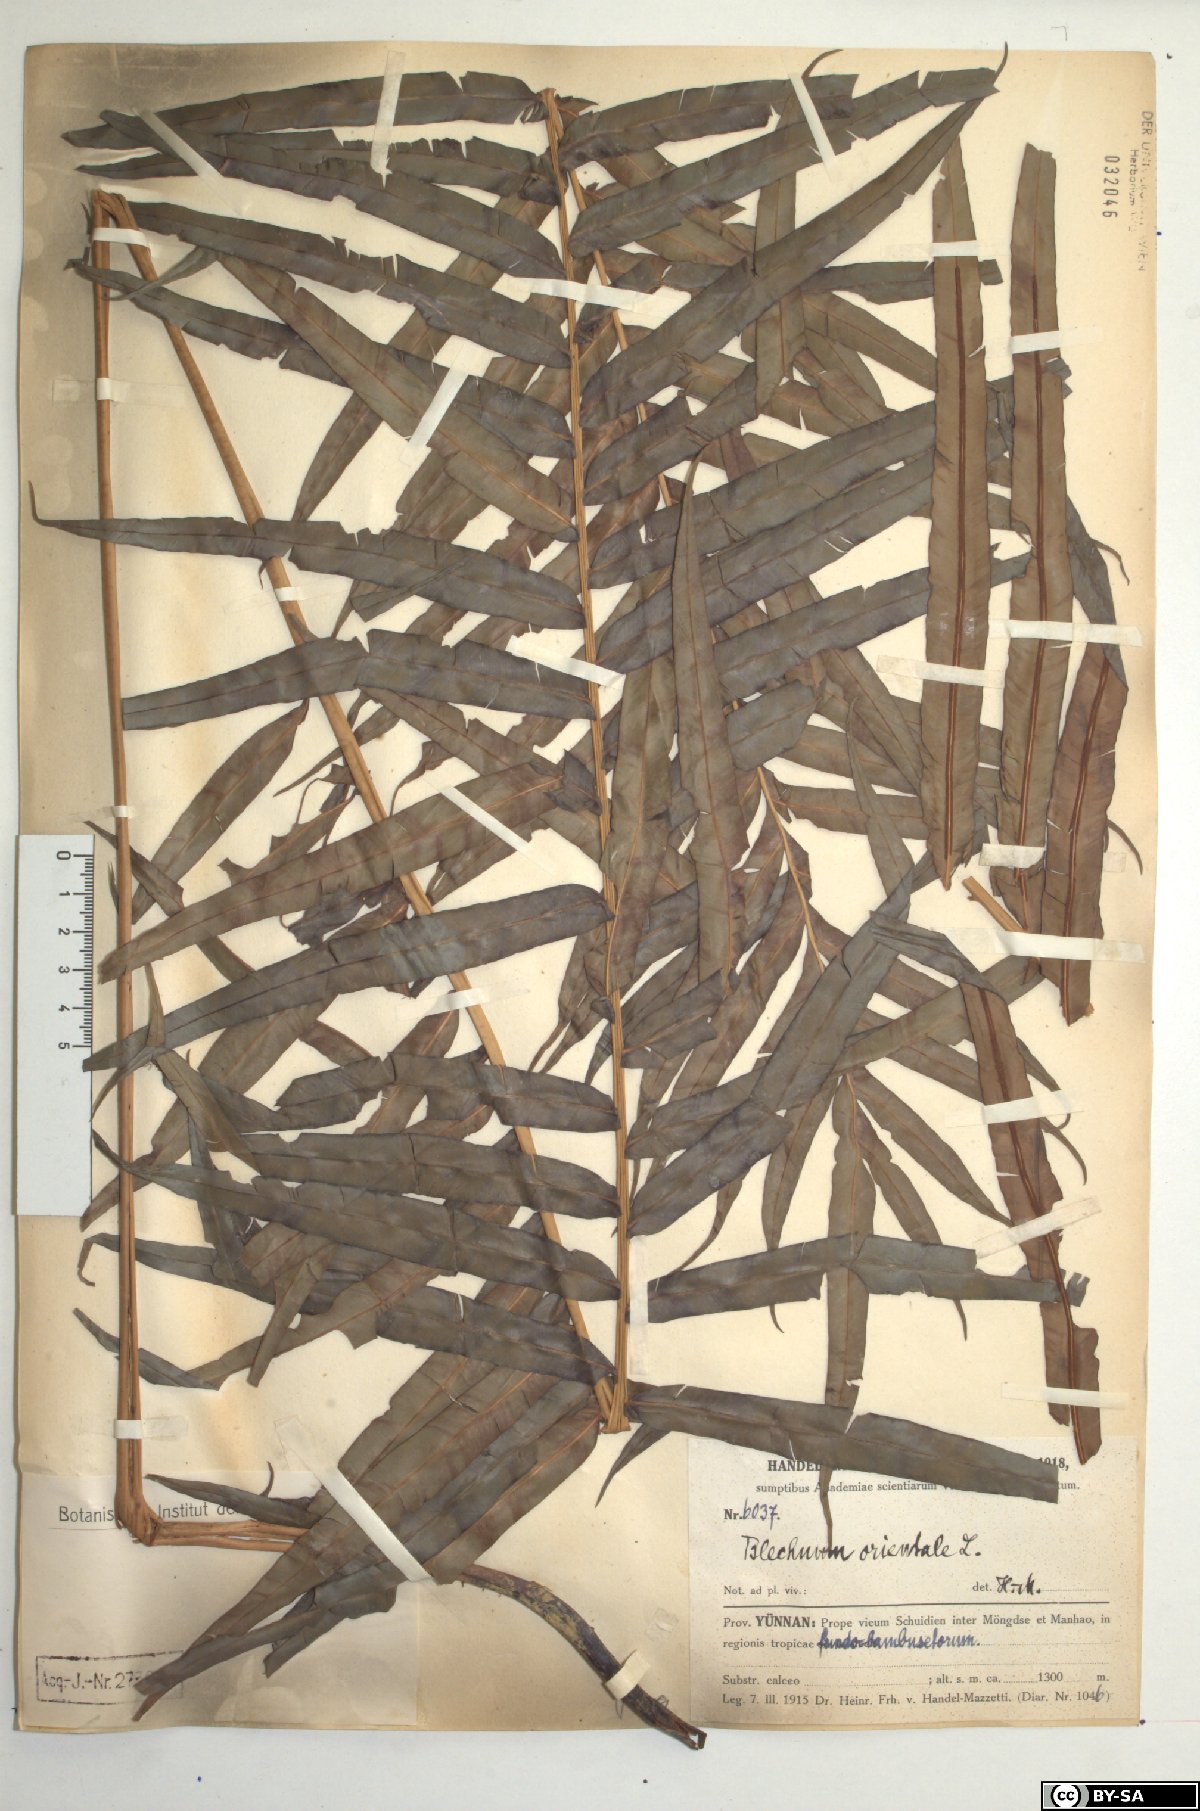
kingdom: Plantae
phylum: Tracheophyta
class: Polypodiopsida
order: Polypodiales
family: Blechnaceae
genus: Blechnopsis
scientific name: Blechnopsis orientalis
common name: Oriental blechnum
